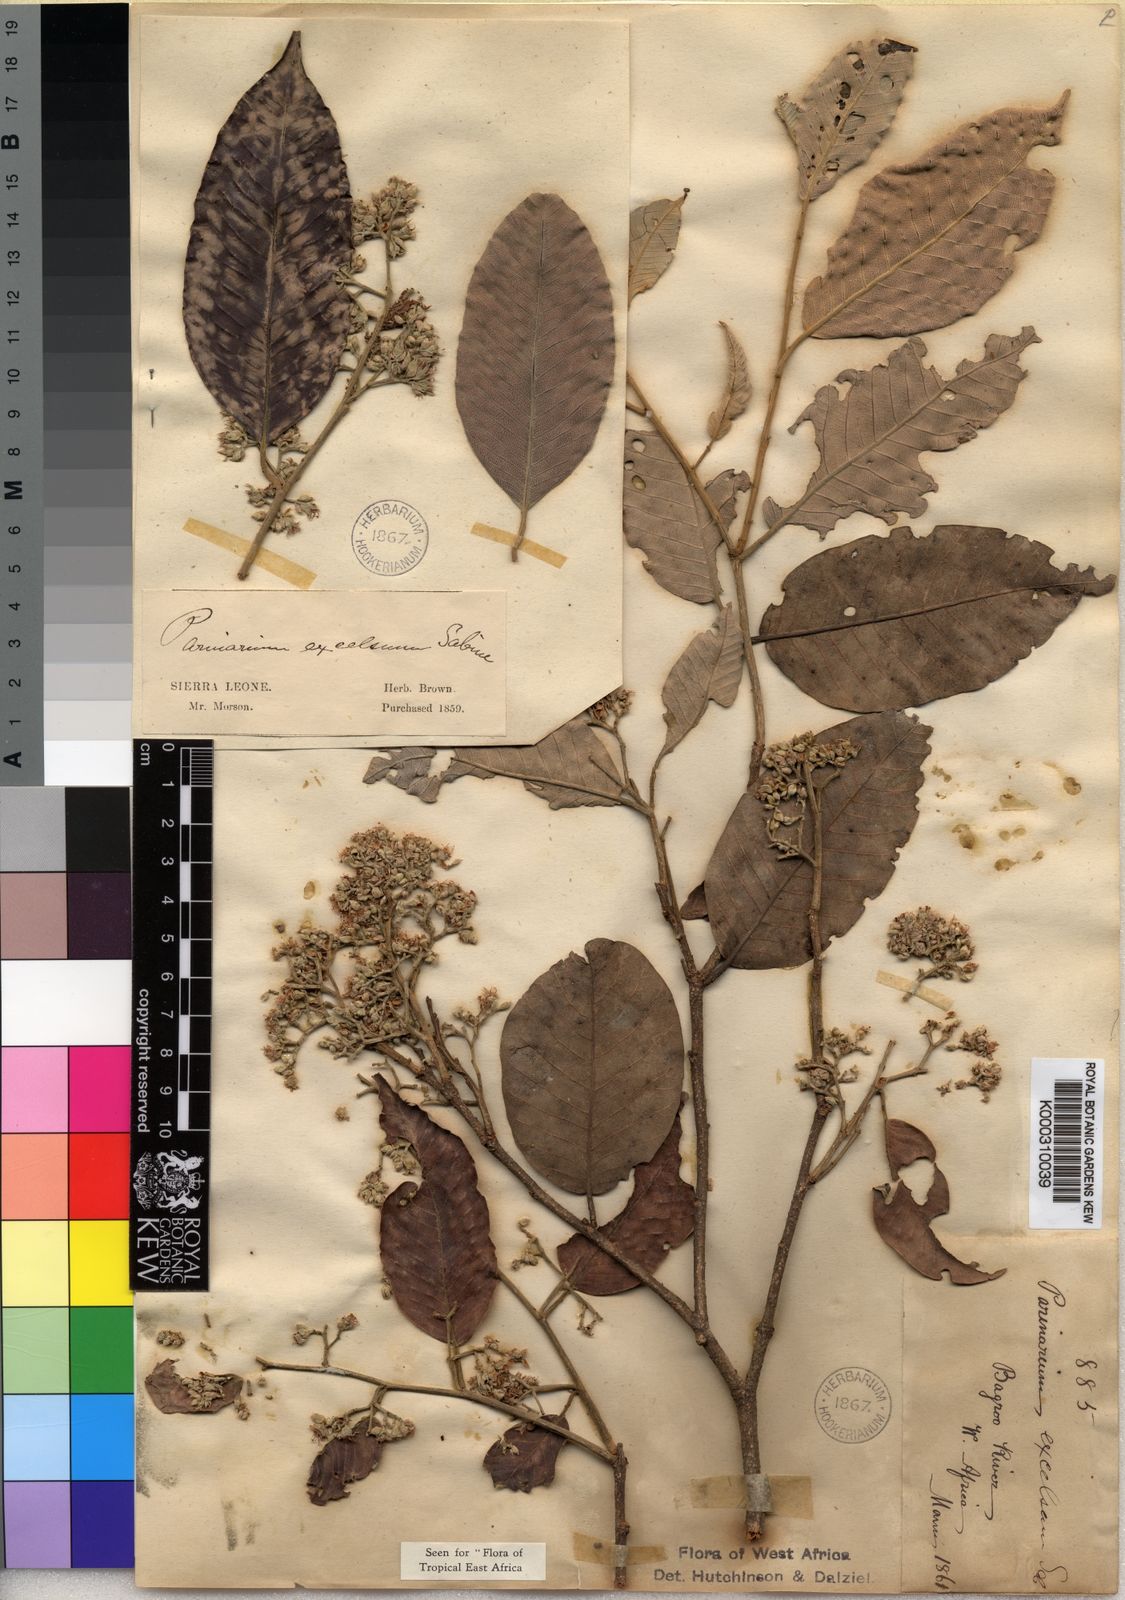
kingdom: Plantae
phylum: Tracheophyta
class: Magnoliopsida
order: Malpighiales
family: Chrysobalanaceae
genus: Parinari
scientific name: Parinari excelsa
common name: Guinea-plum
